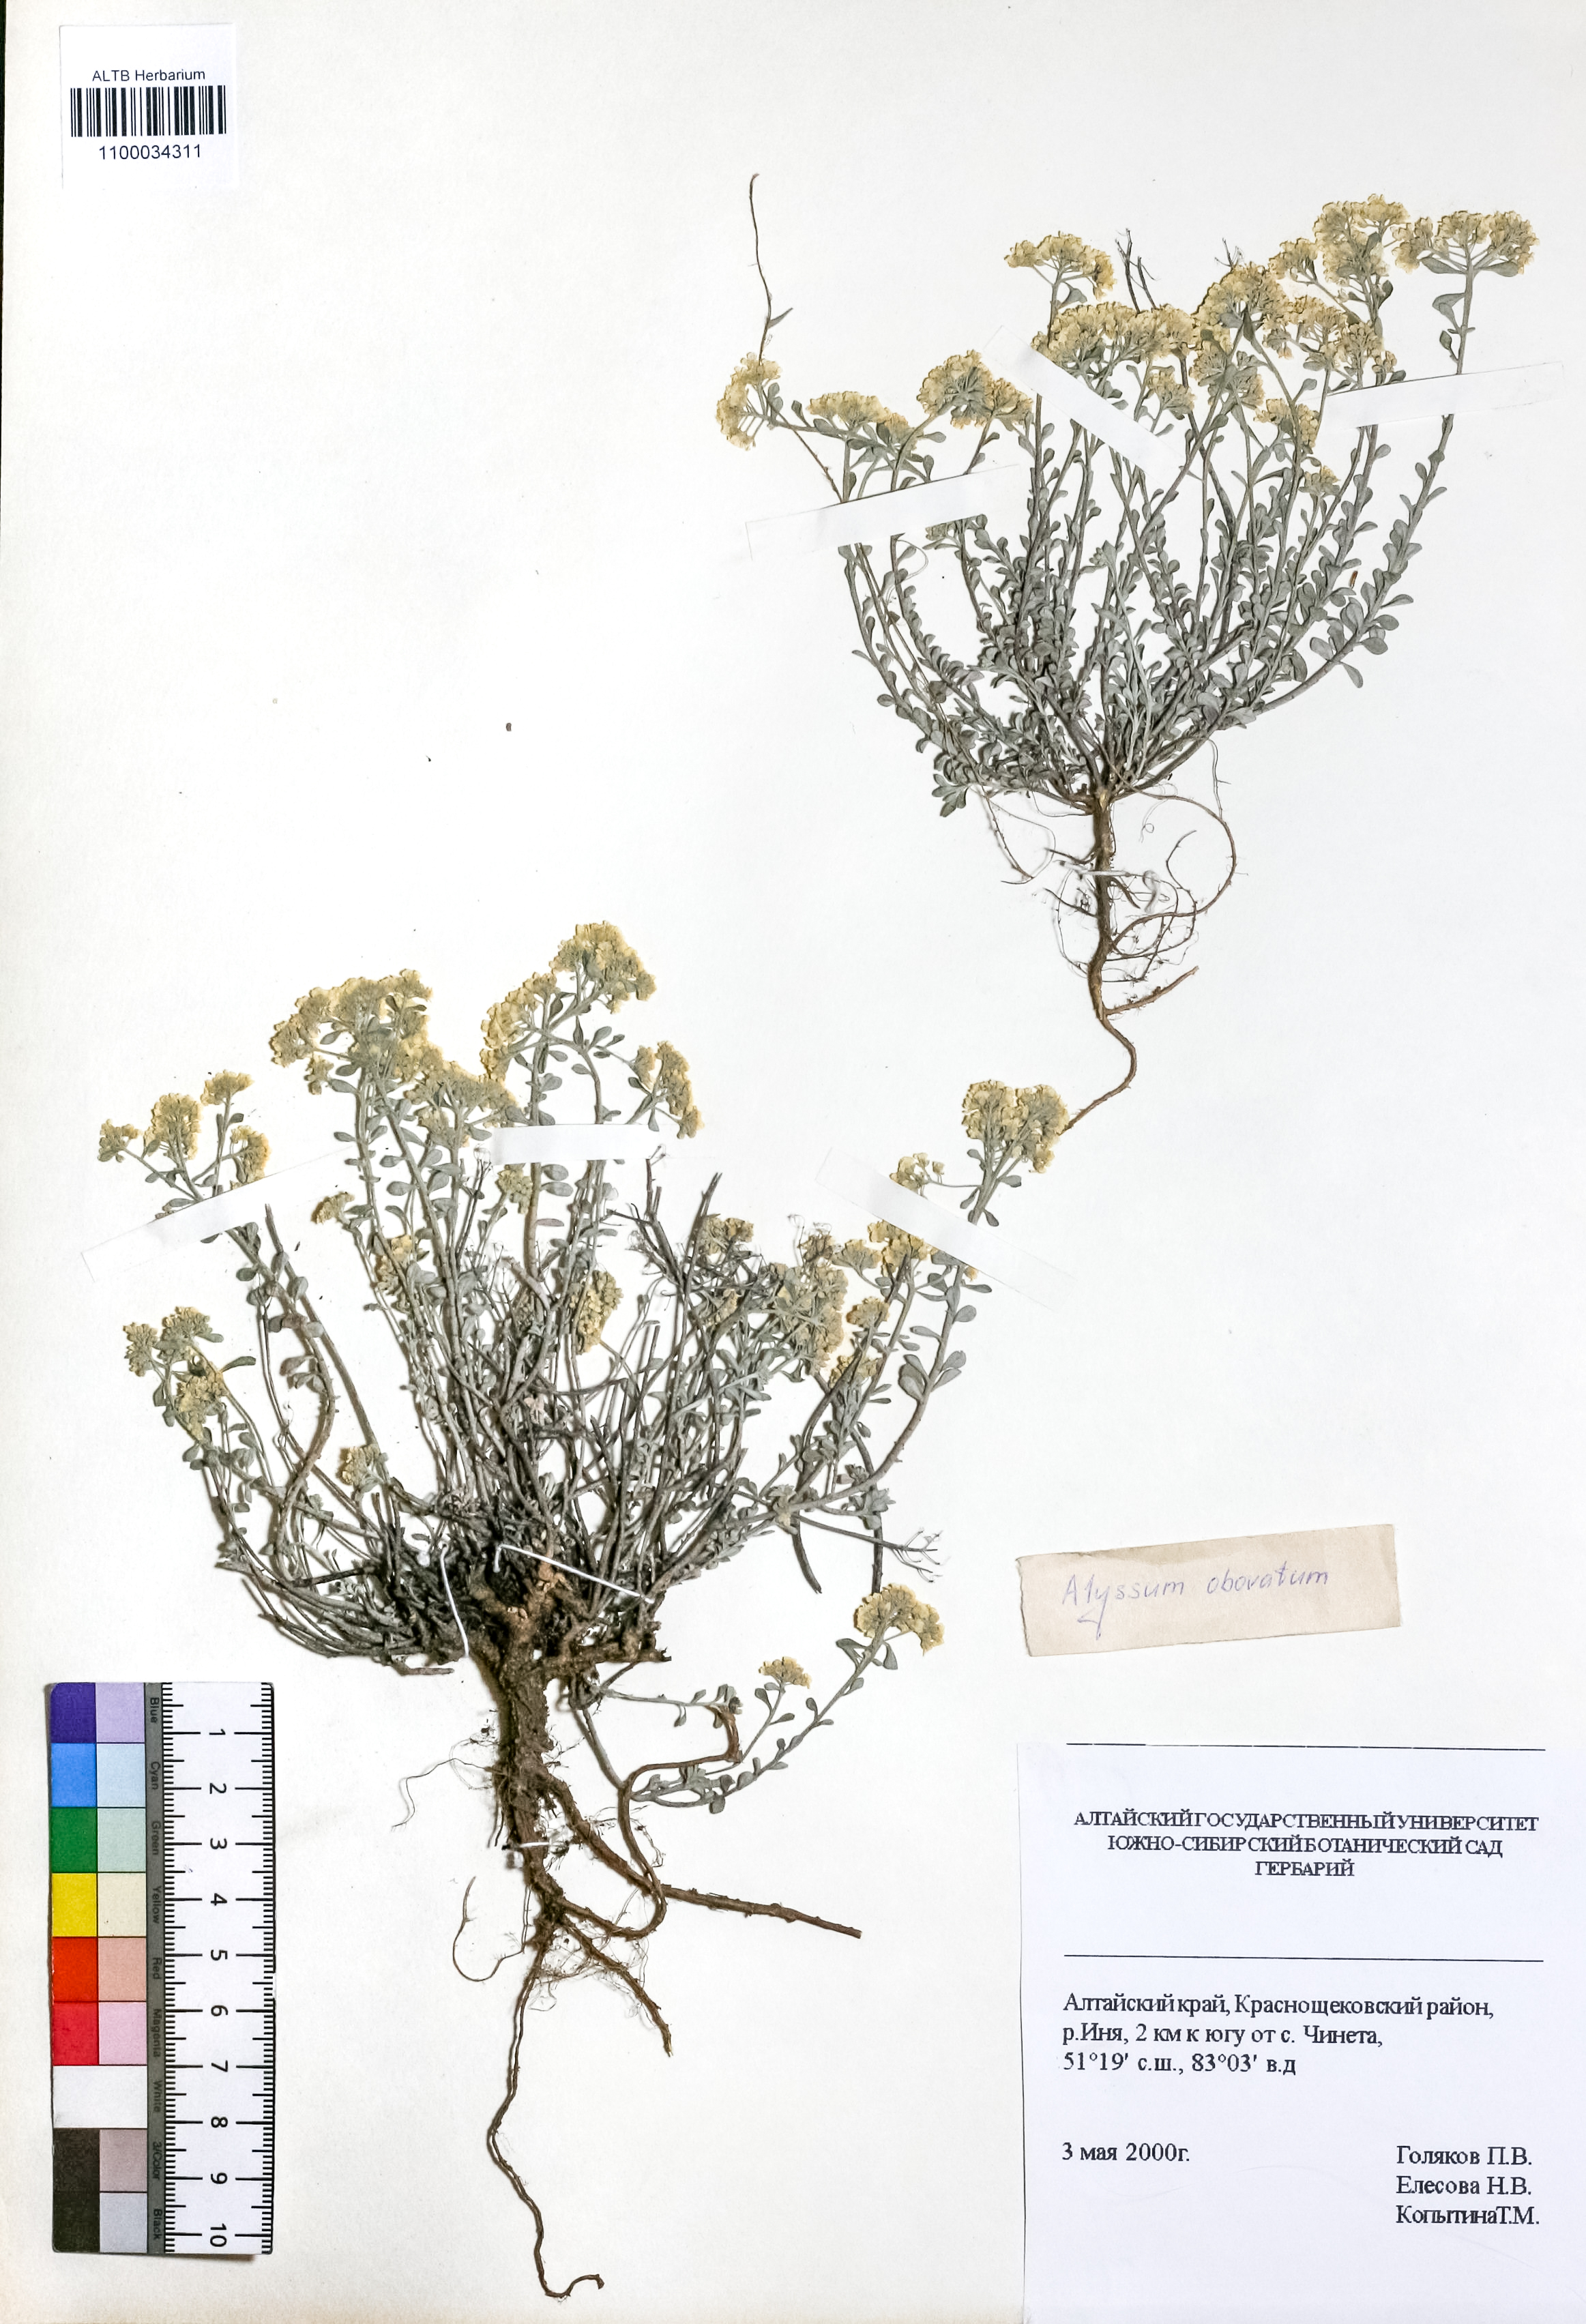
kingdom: Plantae
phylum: Tracheophyta
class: Magnoliopsida
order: Brassicales
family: Brassicaceae
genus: Odontarrhena
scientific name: Odontarrhena obovata
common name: American alyssum
